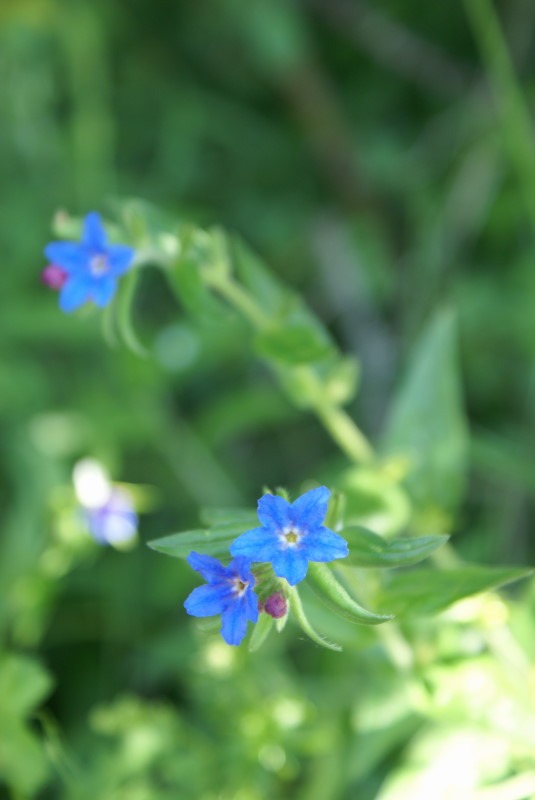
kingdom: Plantae
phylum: Tracheophyta
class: Magnoliopsida
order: Boraginales
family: Boraginaceae
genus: Aegonychon
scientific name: Aegonychon purpurocaeruleum
